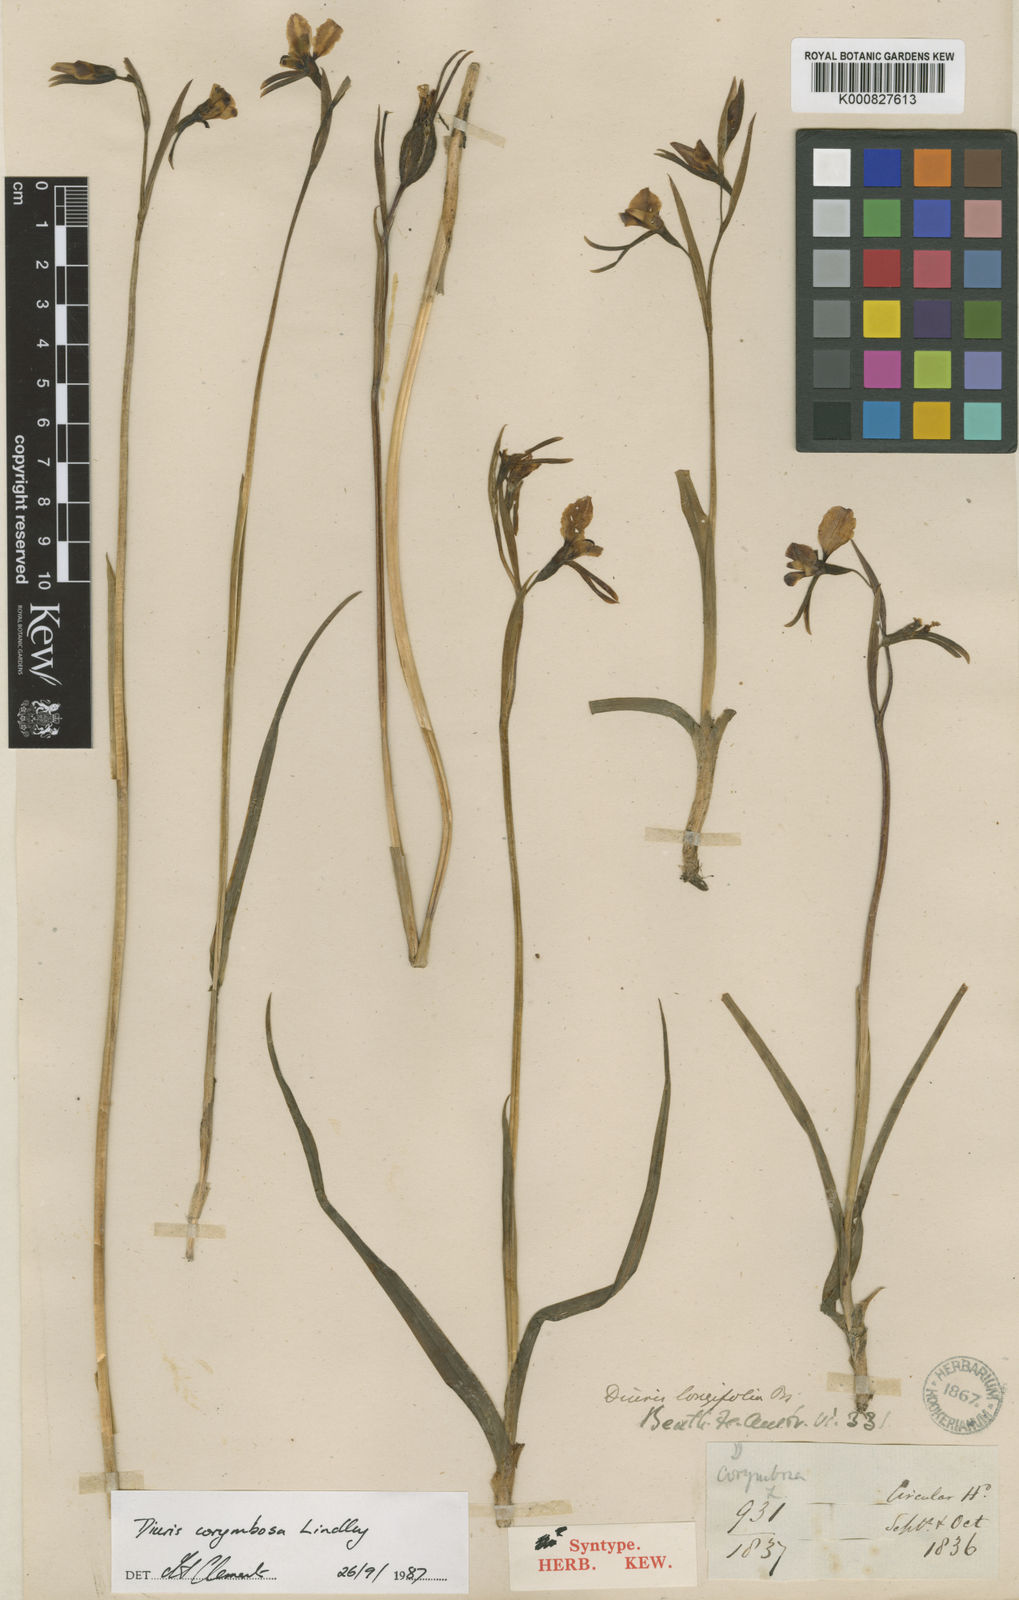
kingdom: Plantae
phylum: Tracheophyta
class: Liliopsida
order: Asparagales
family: Orchidaceae
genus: Diuris
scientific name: Diuris longifolia
